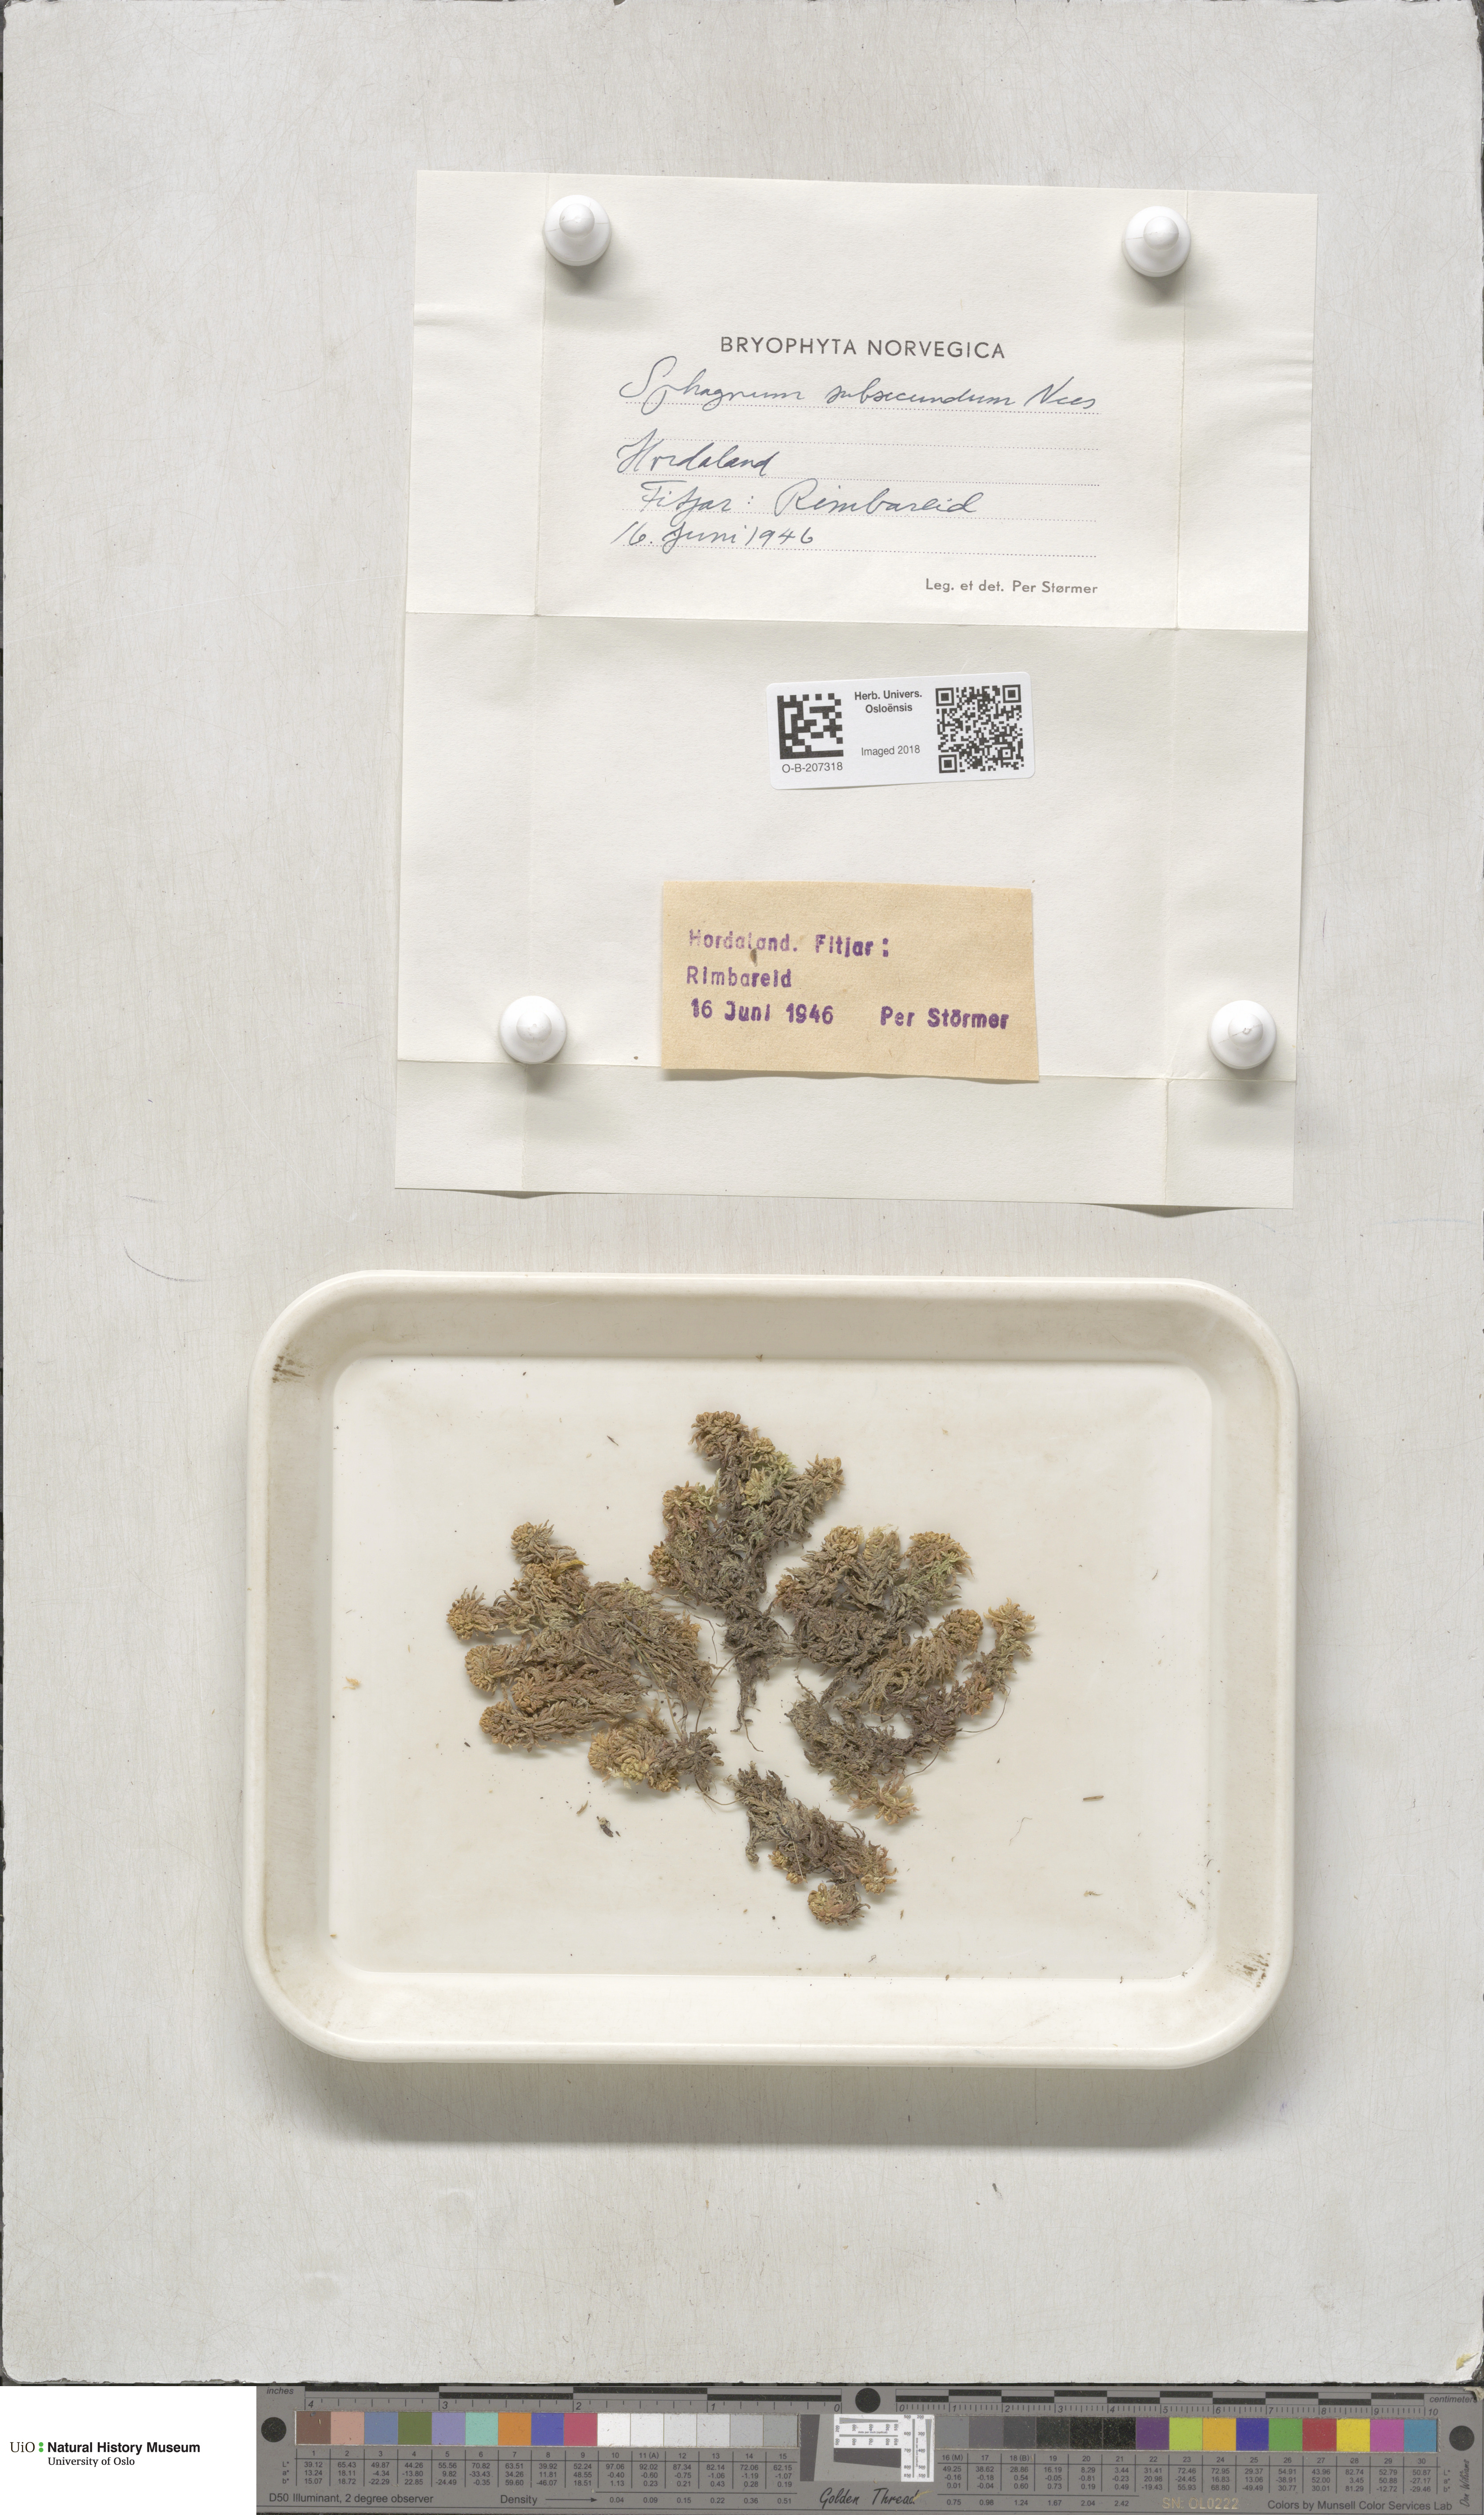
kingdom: Plantae
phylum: Bryophyta
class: Sphagnopsida
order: Sphagnales
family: Sphagnaceae
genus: Sphagnum
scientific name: Sphagnum subsecundum
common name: Orange peat moss
